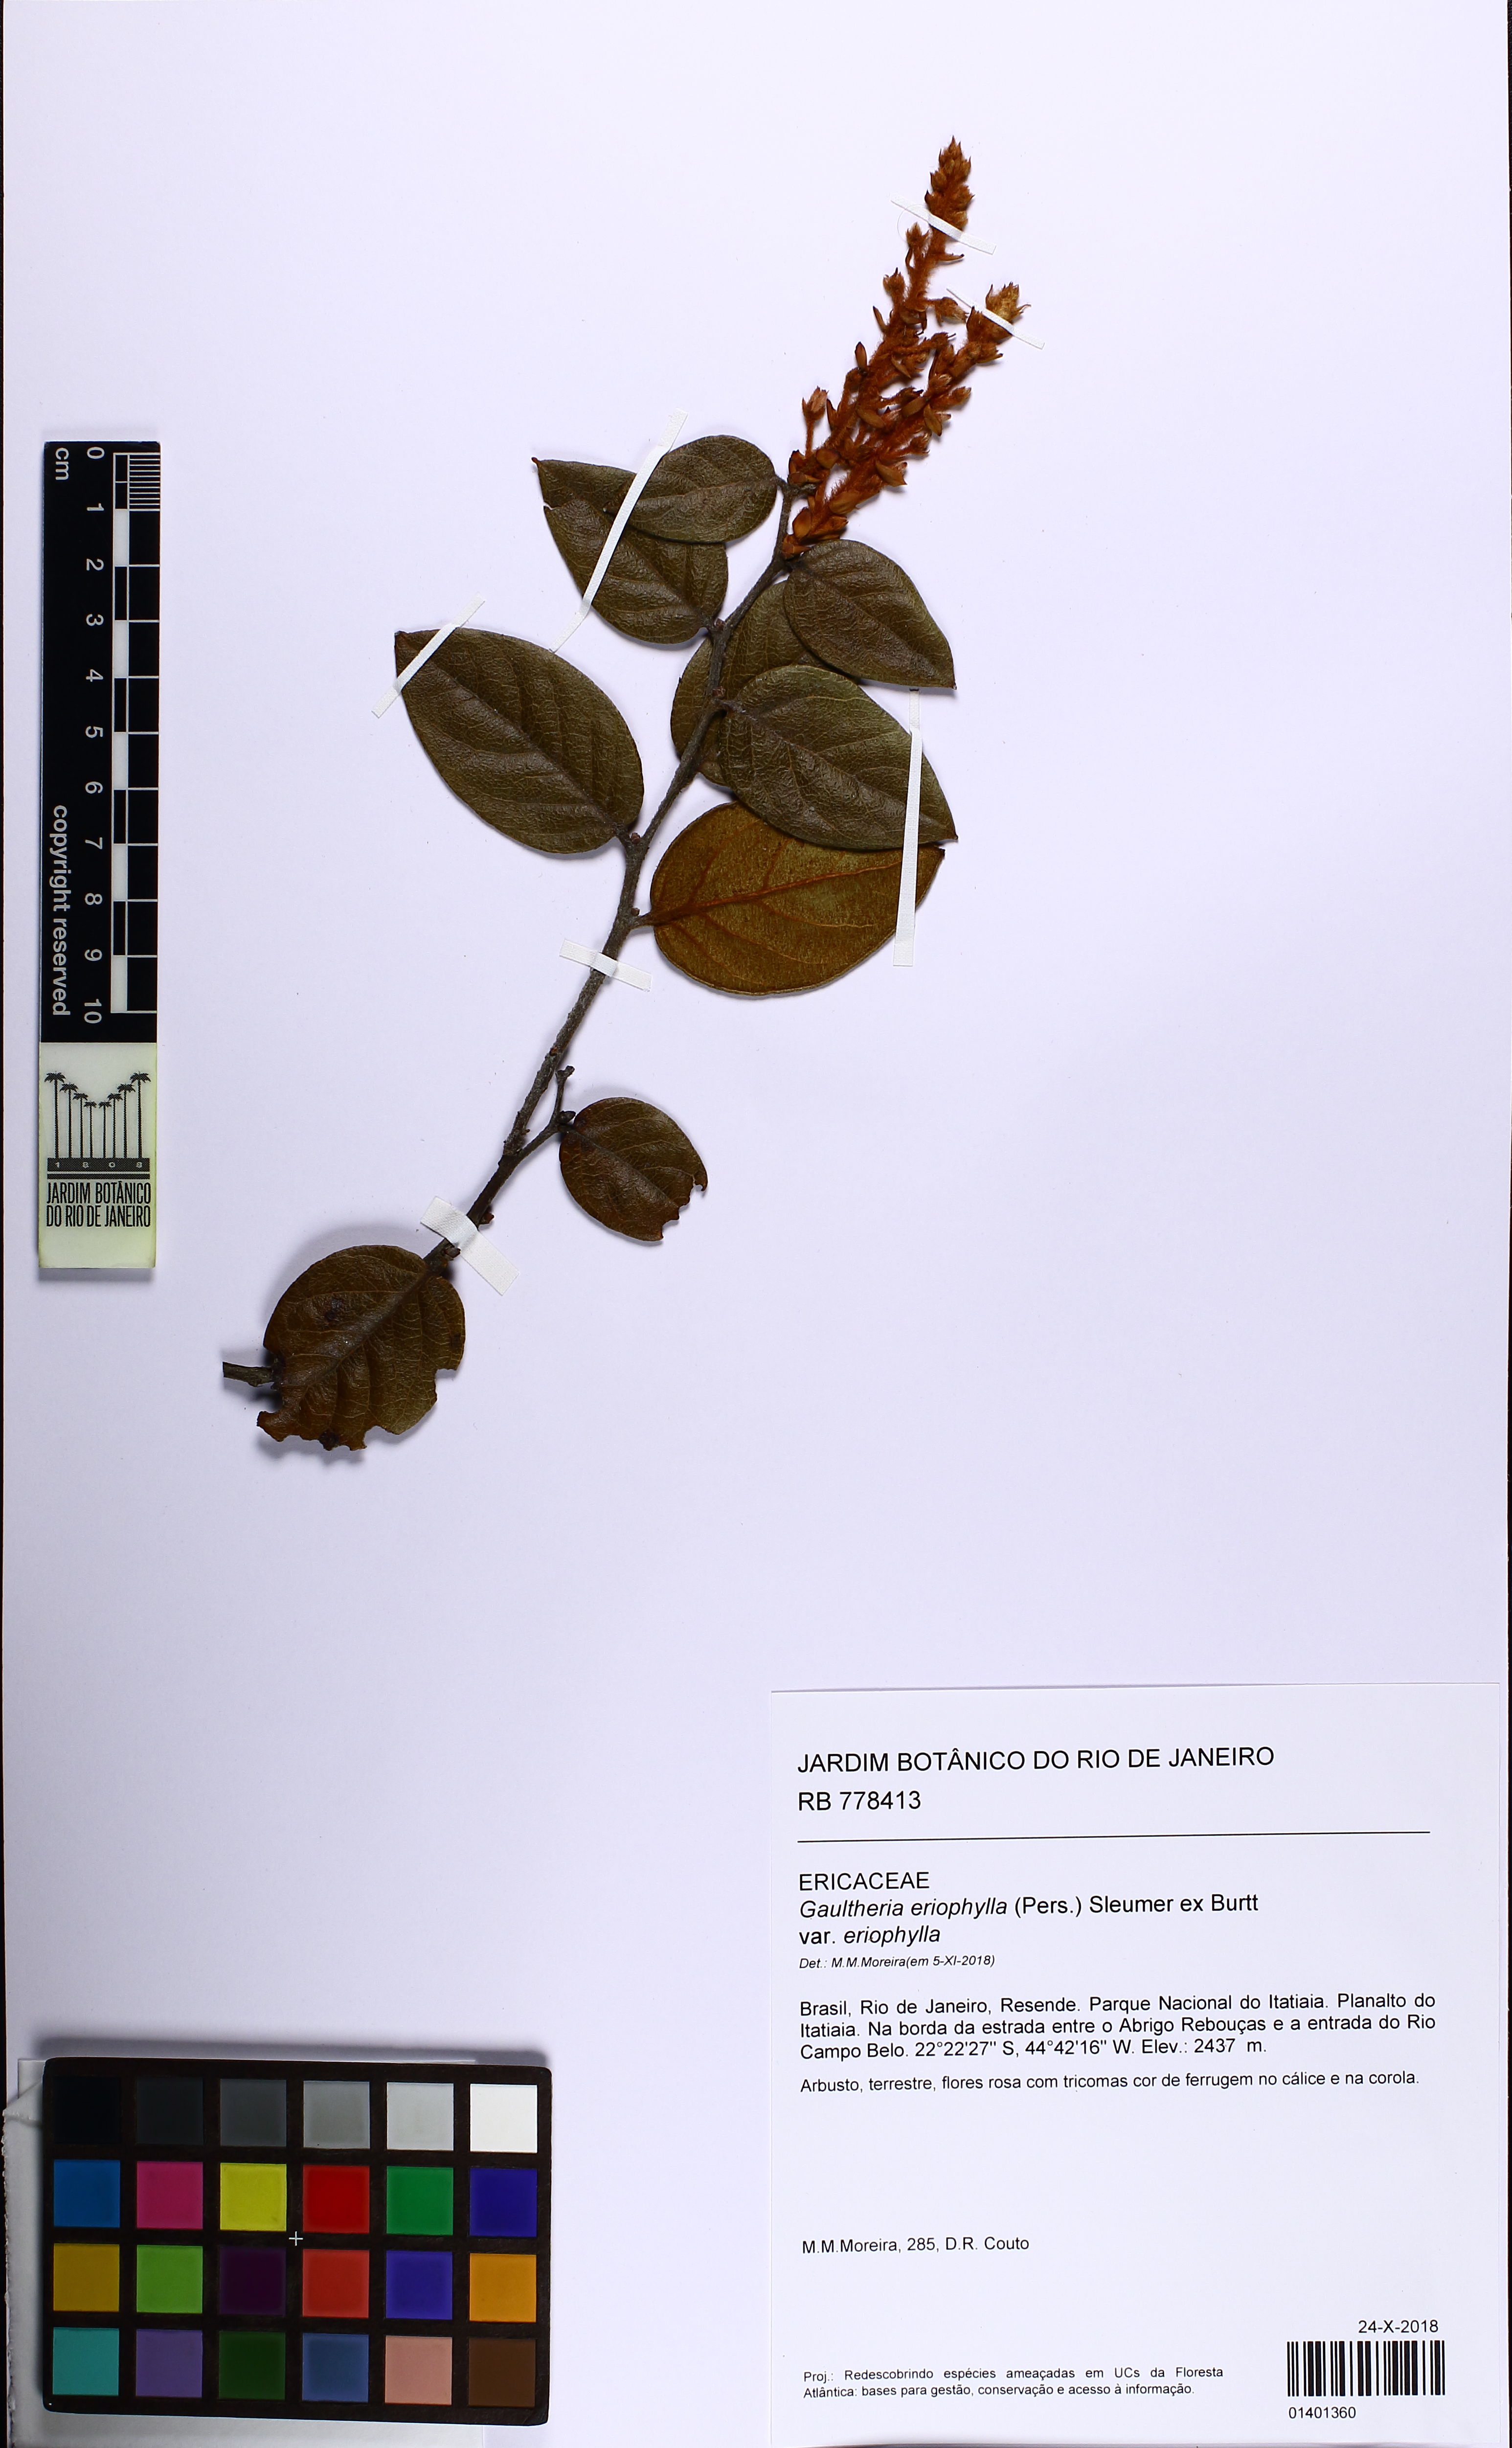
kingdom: Plantae
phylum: Tracheophyta
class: Magnoliopsida
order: Ericales
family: Ericaceae
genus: Gaultheria
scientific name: Gaultheria eriophylla
